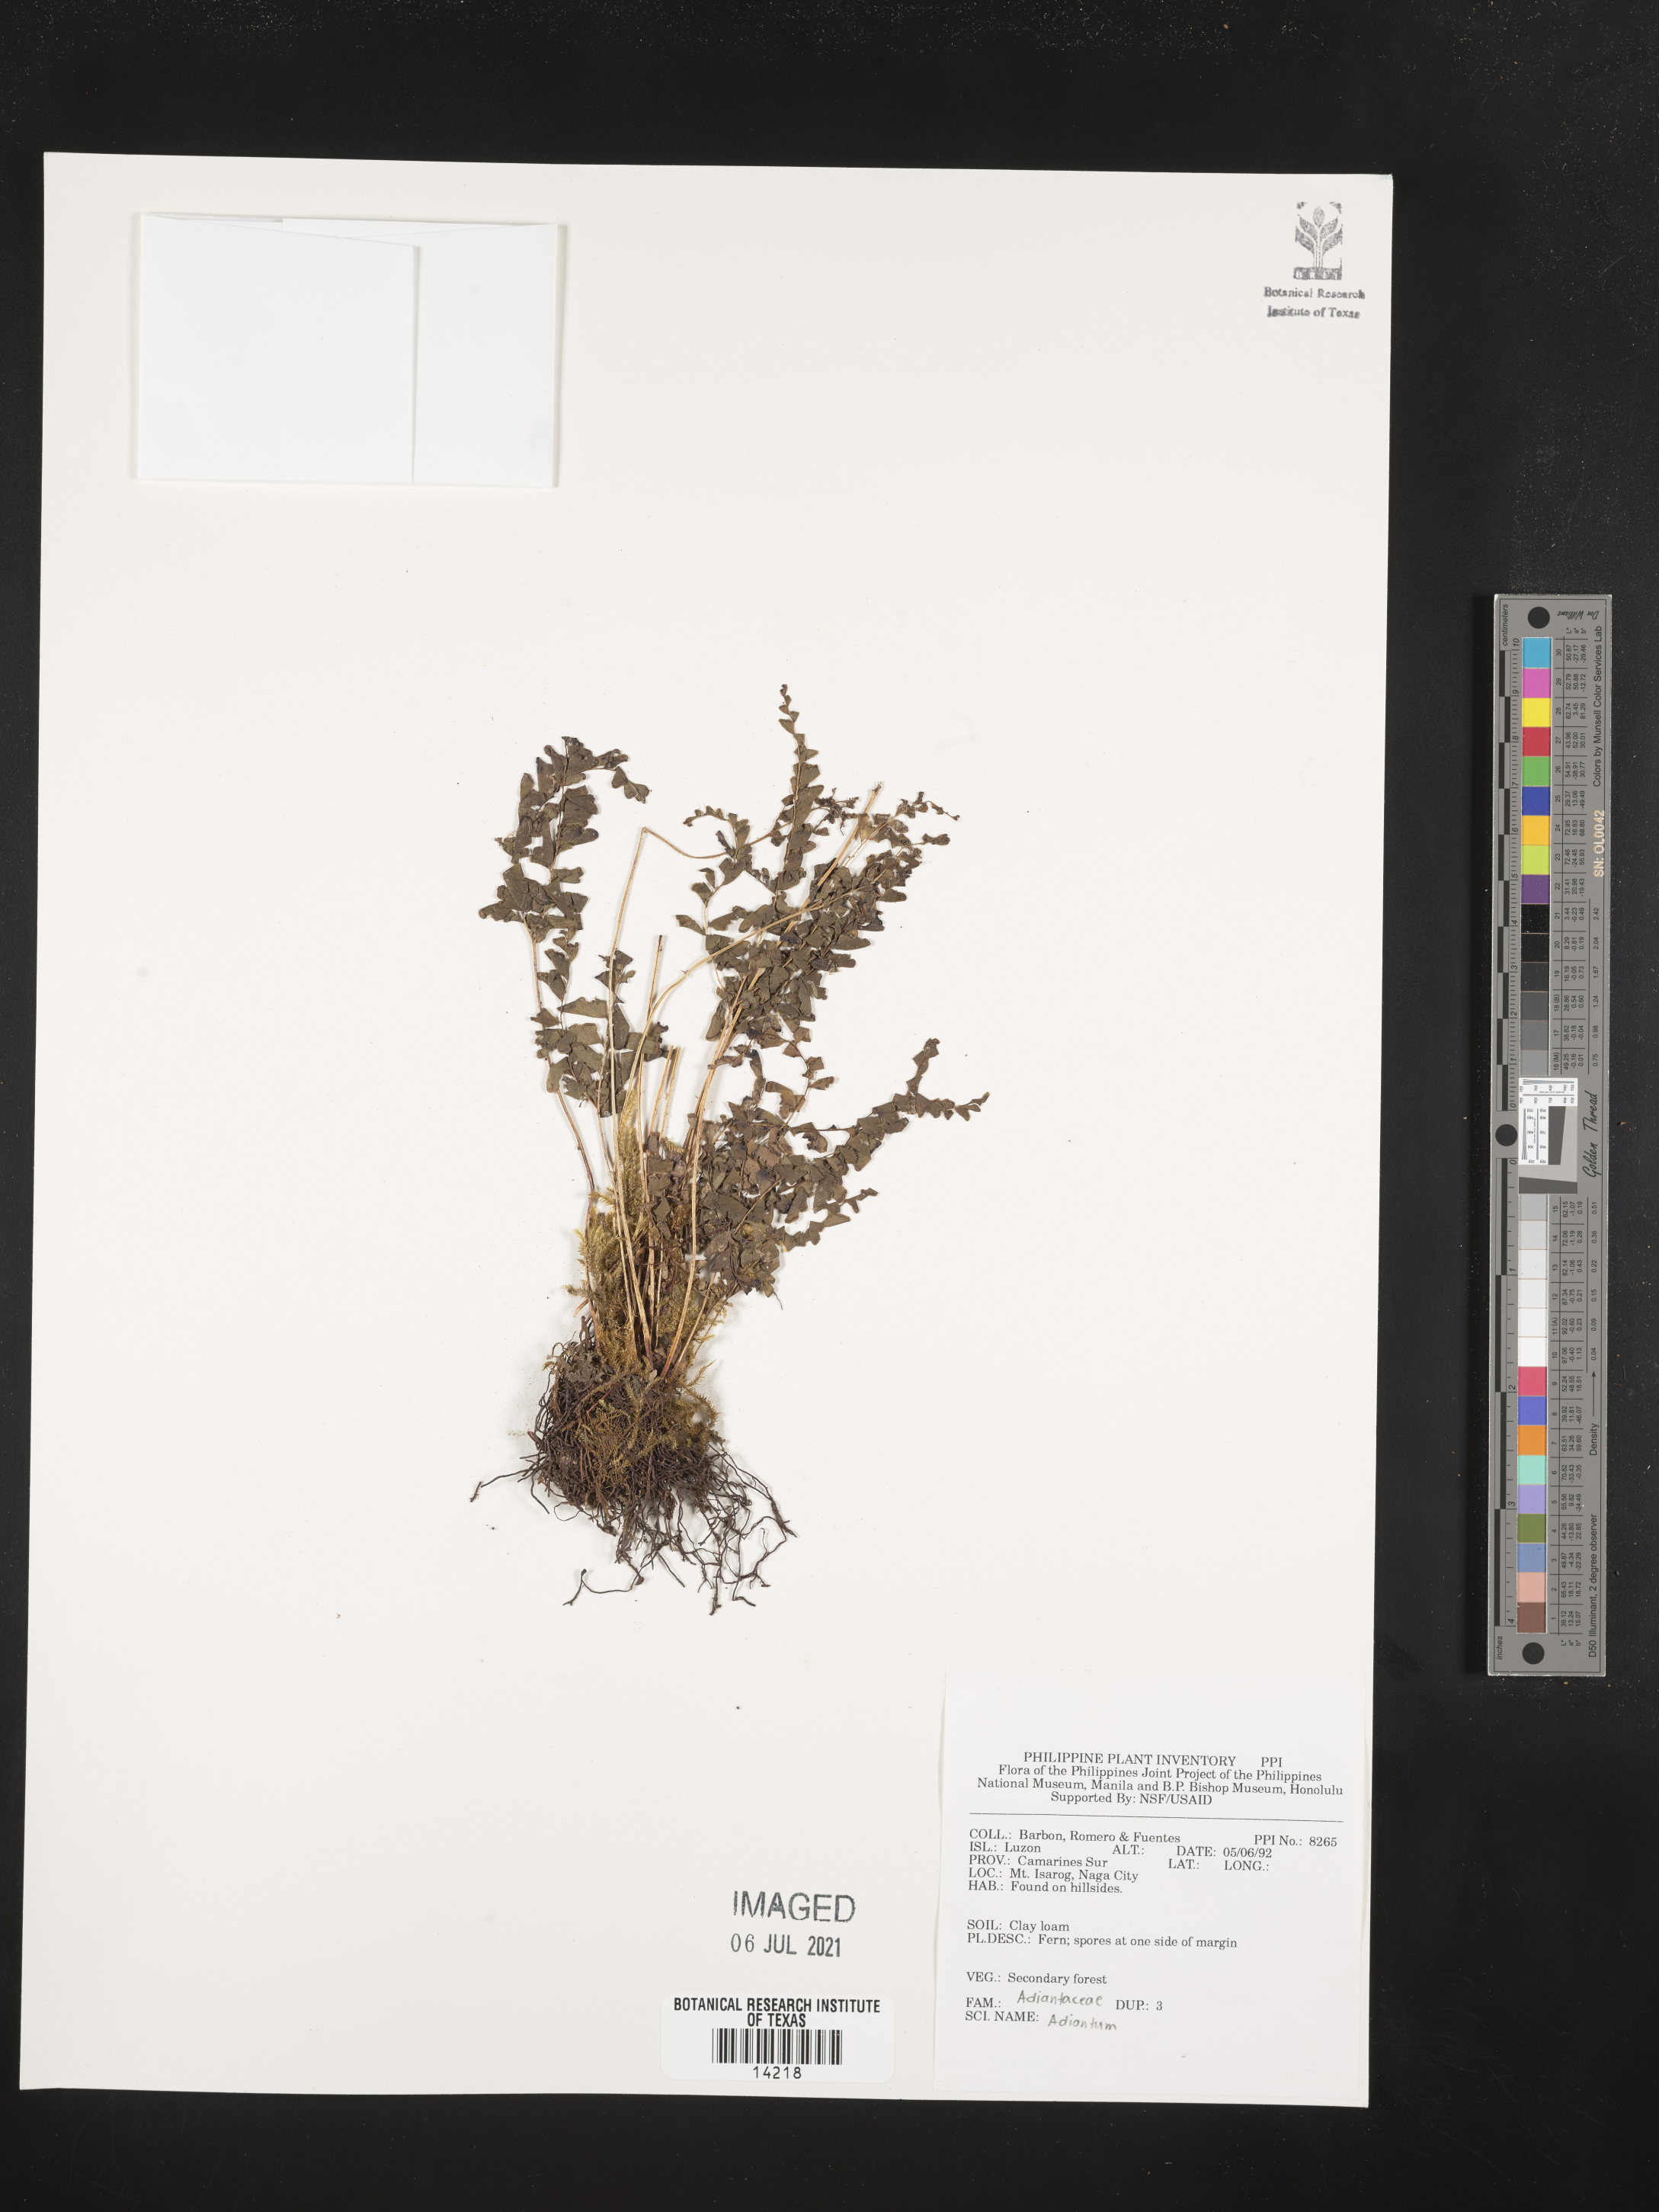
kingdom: Plantae
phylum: Tracheophyta
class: Polypodiopsida
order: Polypodiales
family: Pteridaceae
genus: Adiantum
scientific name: Adiantum
